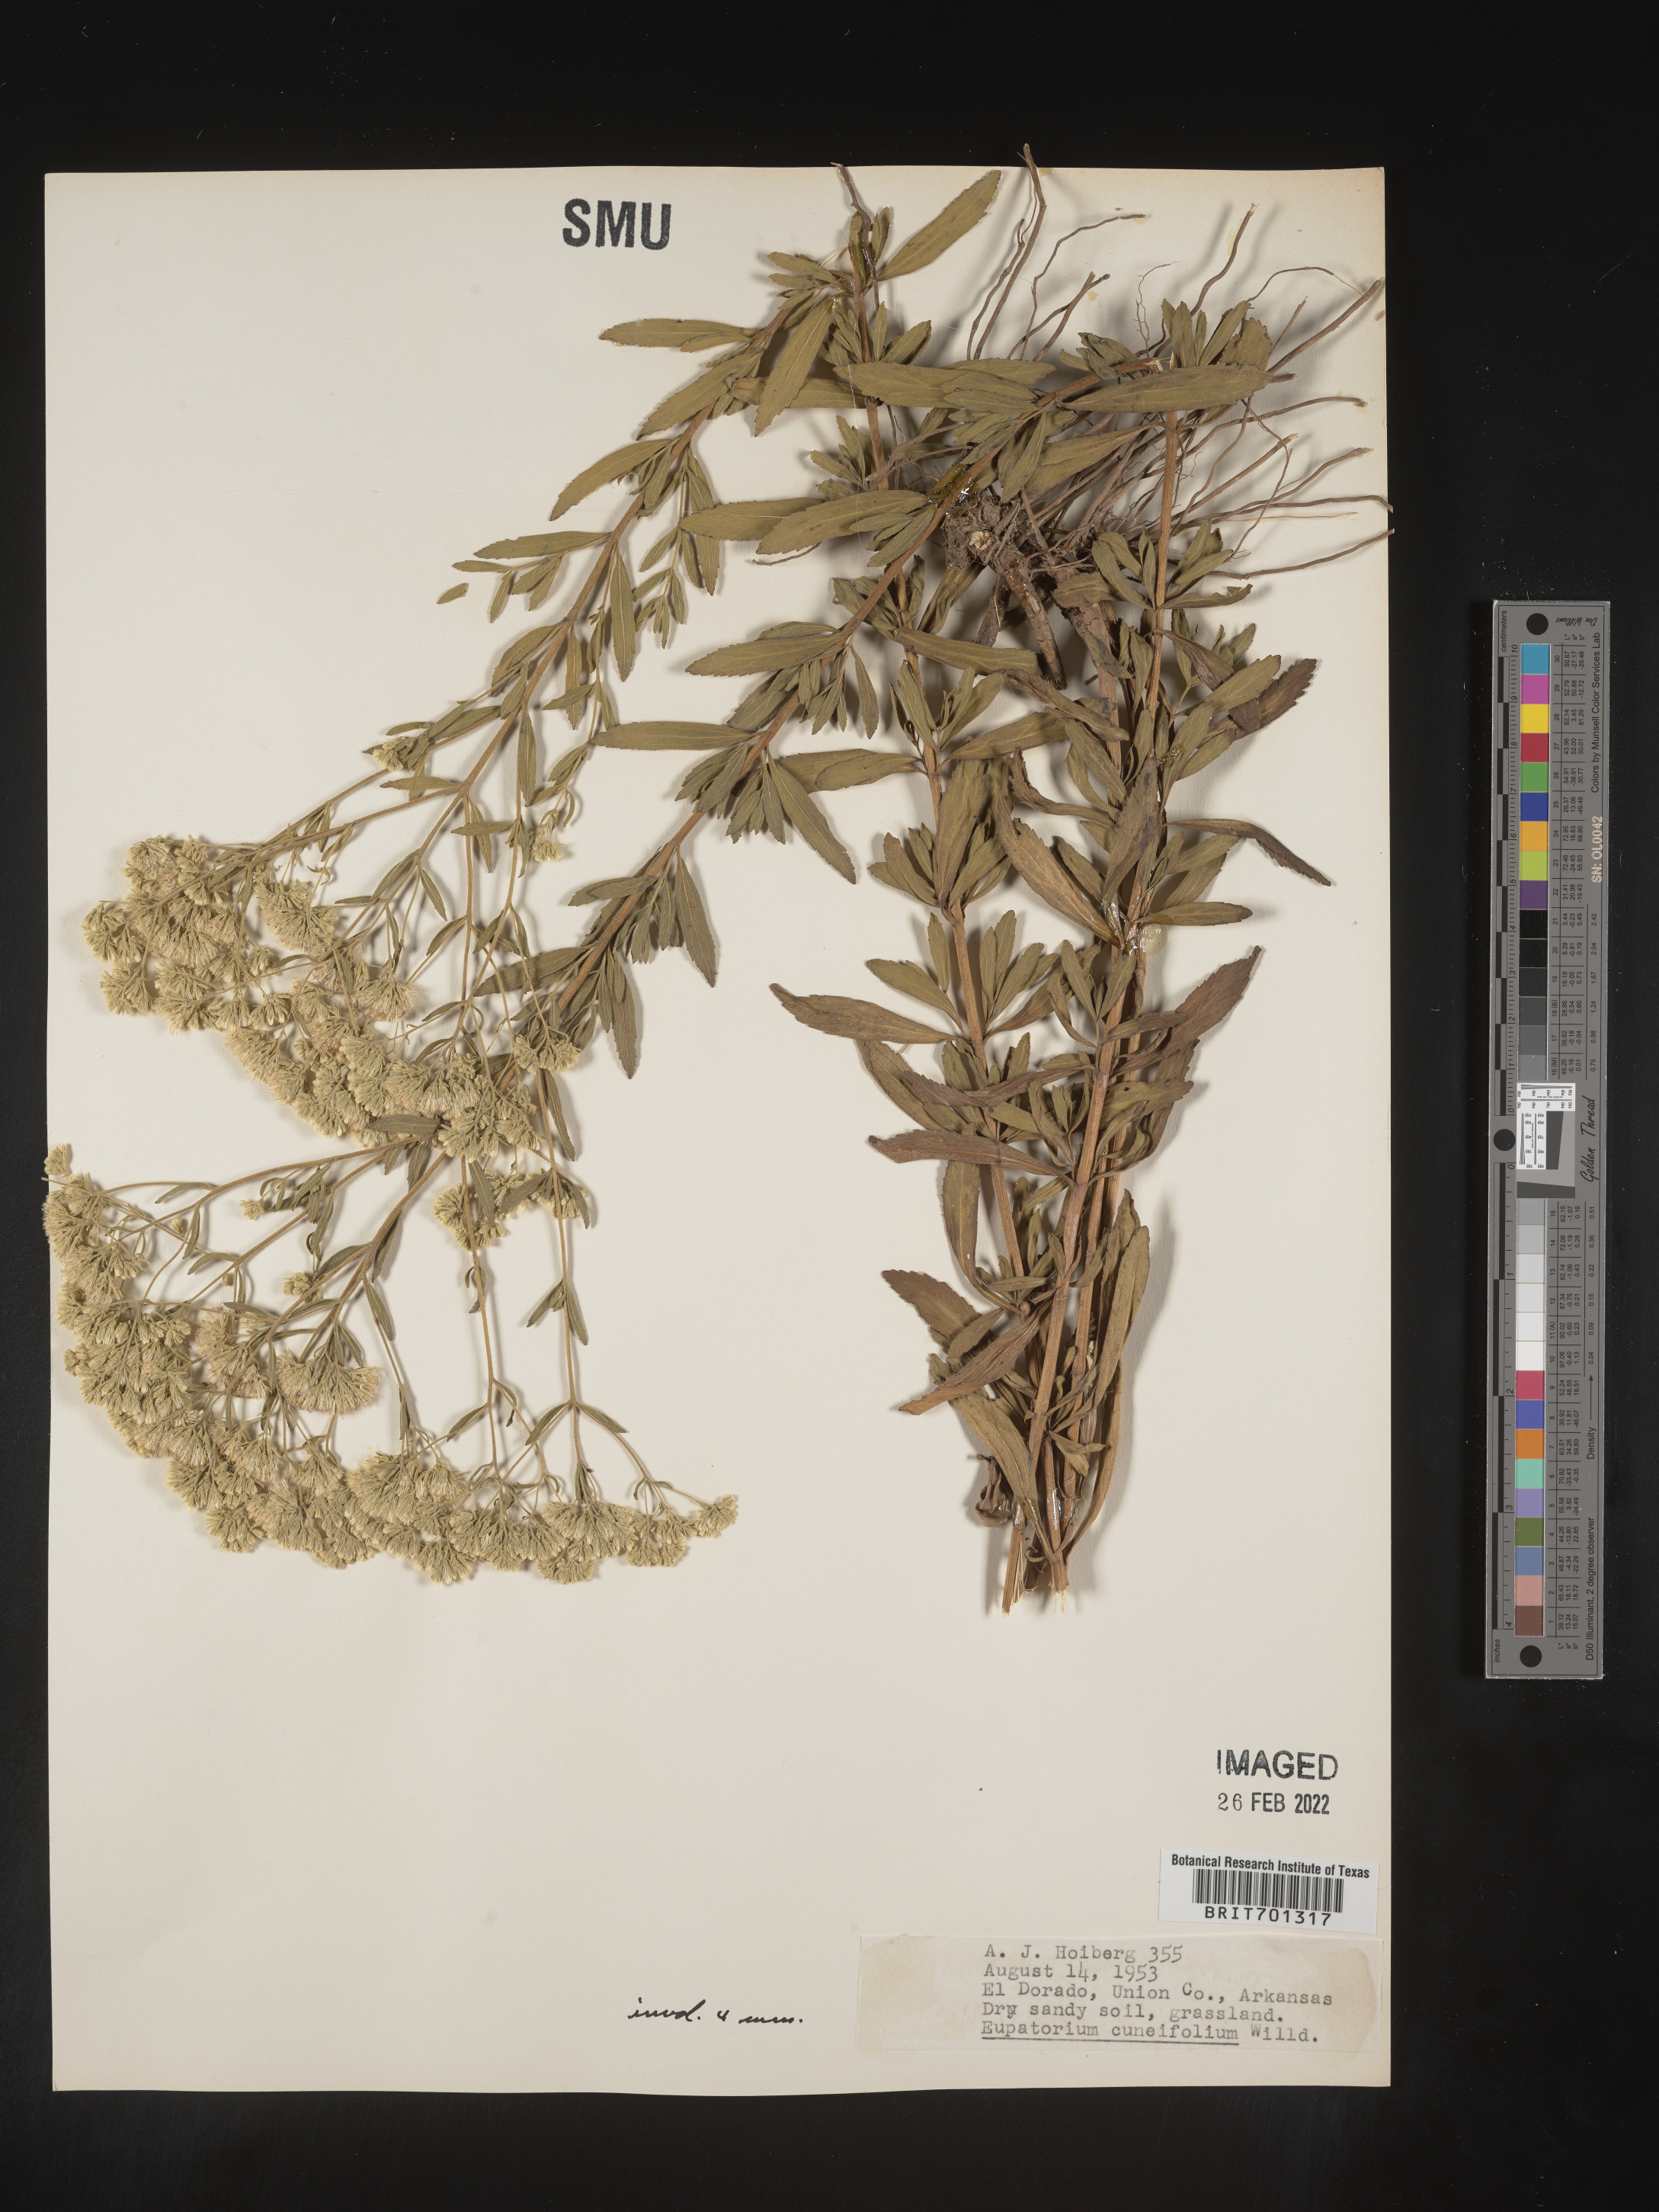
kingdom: Plantae
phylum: Tracheophyta
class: Magnoliopsida
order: Asterales
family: Asteraceae
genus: Eupatorium
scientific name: Eupatorium linearifolium
